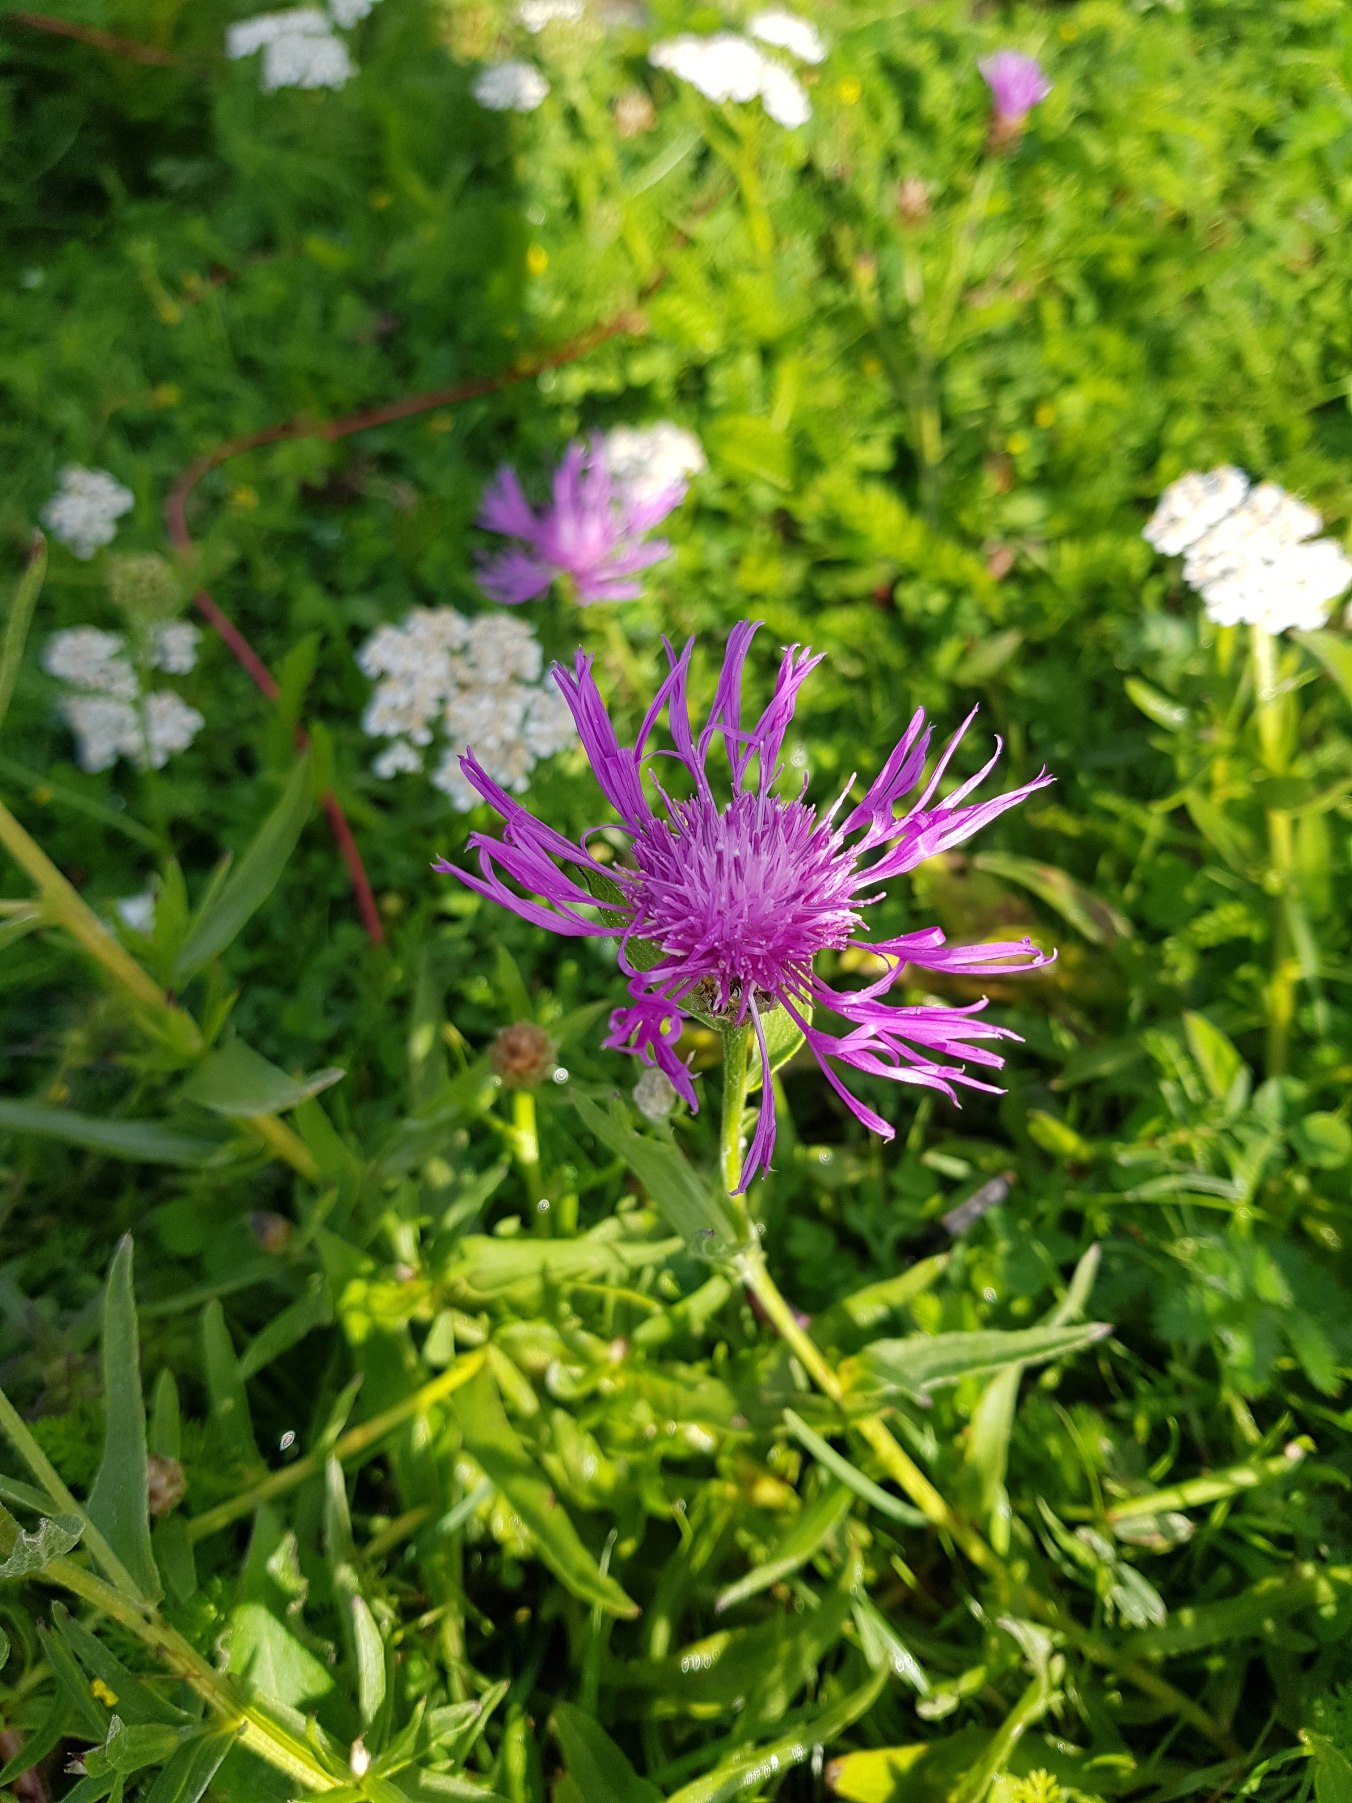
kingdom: Plantae
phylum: Tracheophyta
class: Magnoliopsida
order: Asterales
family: Asteraceae
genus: Centaurea
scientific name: Centaurea jacea
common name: Almindelig knopurt
